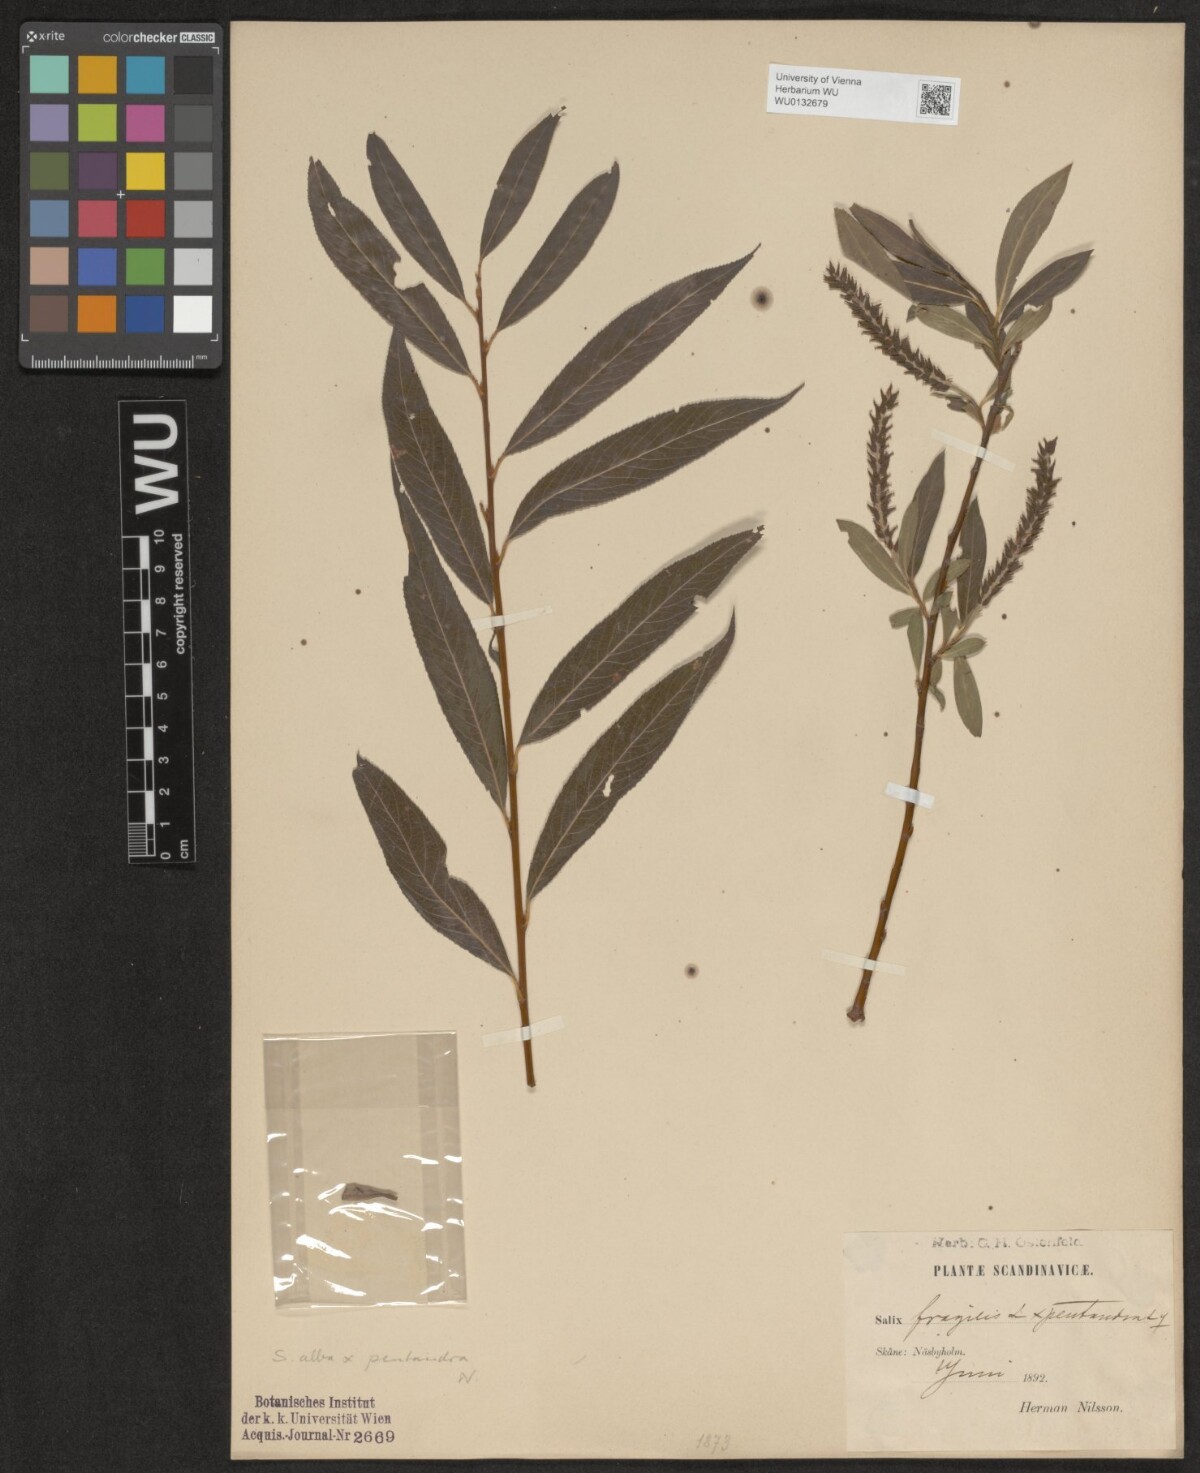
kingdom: Plantae
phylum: Tracheophyta
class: Magnoliopsida
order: Malpighiales
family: Salicaceae
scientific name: Salicaceae
